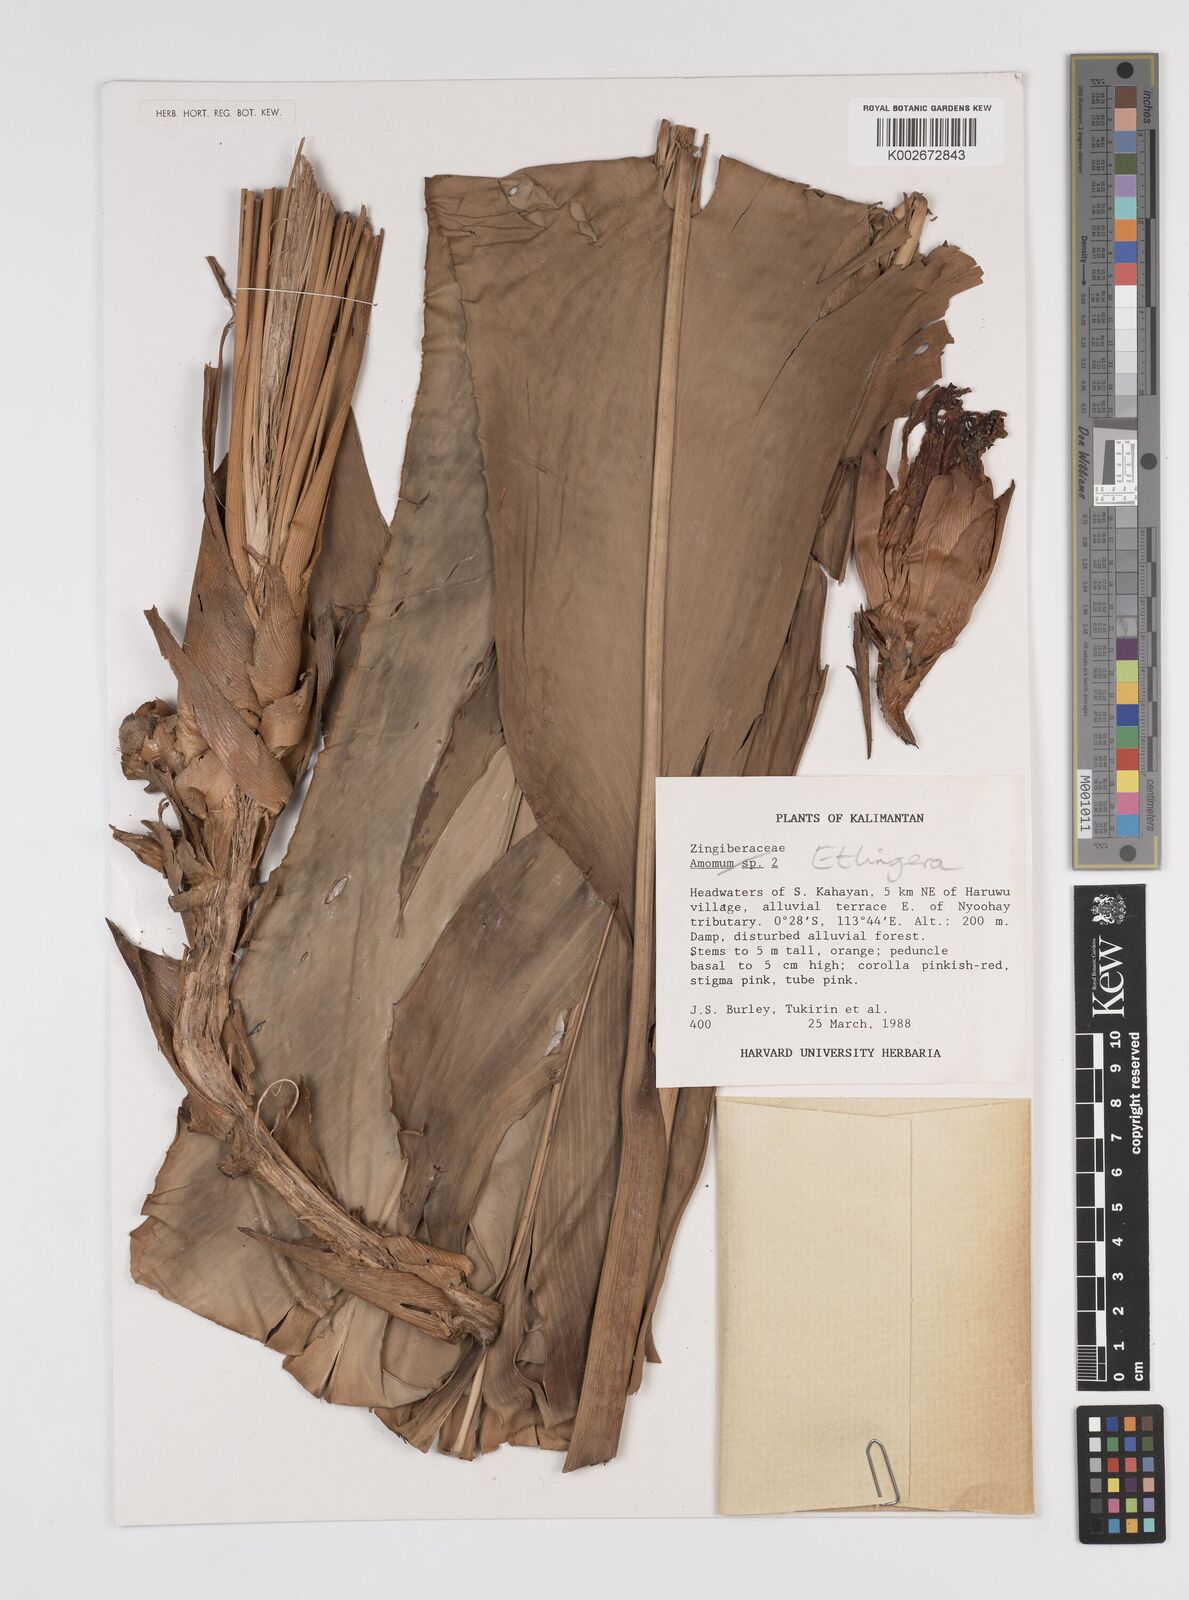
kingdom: Plantae
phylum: Tracheophyta
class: Liliopsida
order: Zingiberales
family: Zingiberaceae
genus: Etlingera
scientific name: Etlingera
